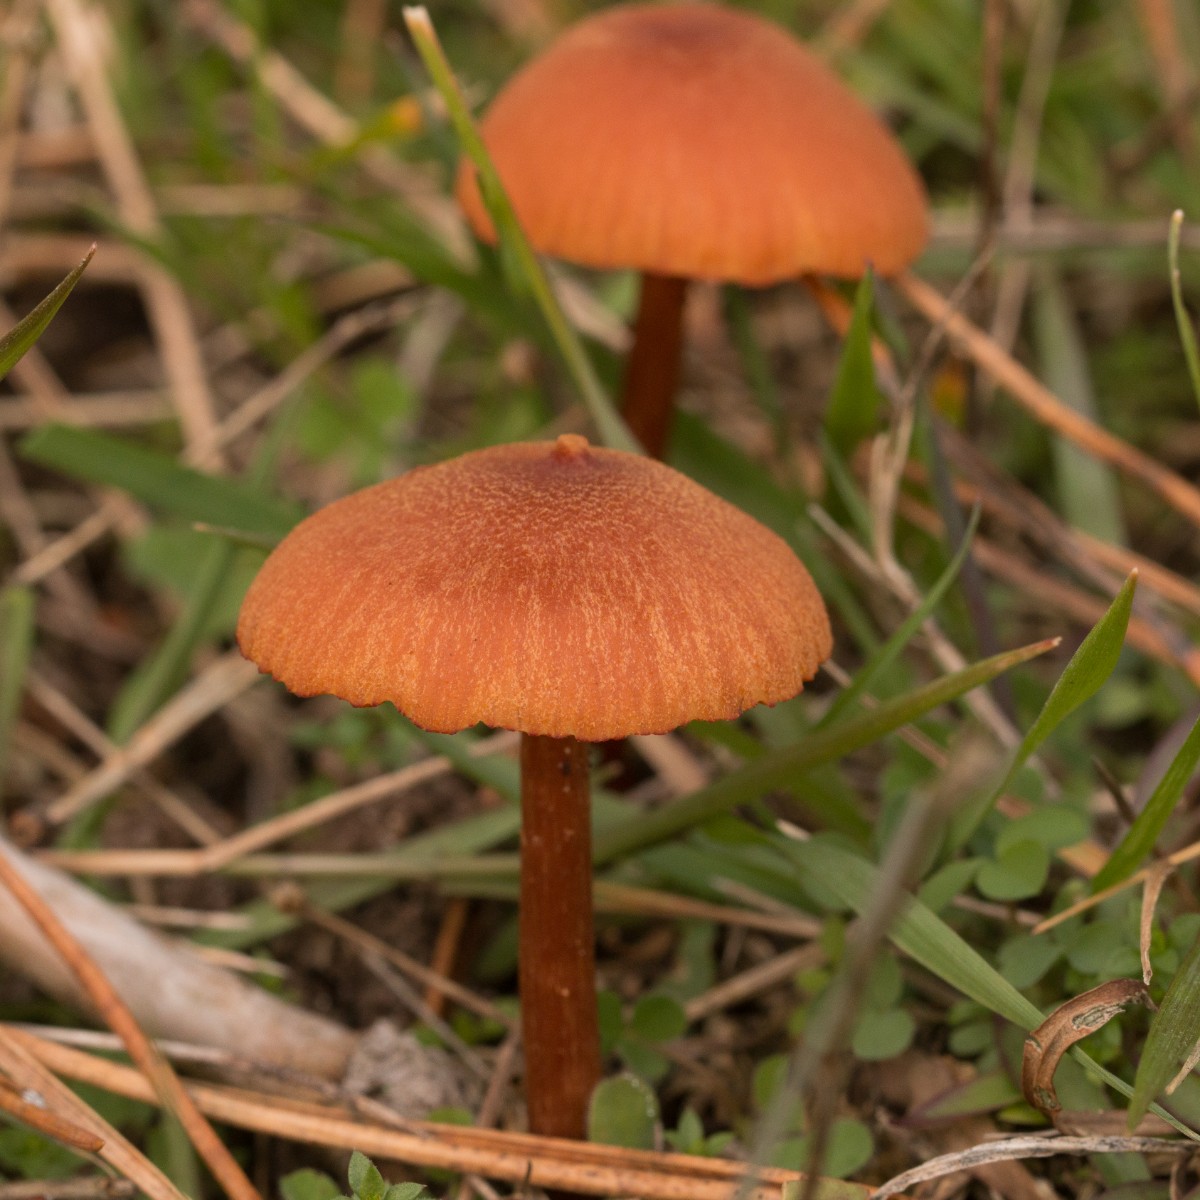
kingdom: Fungi
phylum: Basidiomycota
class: Agaricomycetes
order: Agaricales
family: Hydnangiaceae
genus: Laccaria
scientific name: Laccaria proxima
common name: stor ametysthat
